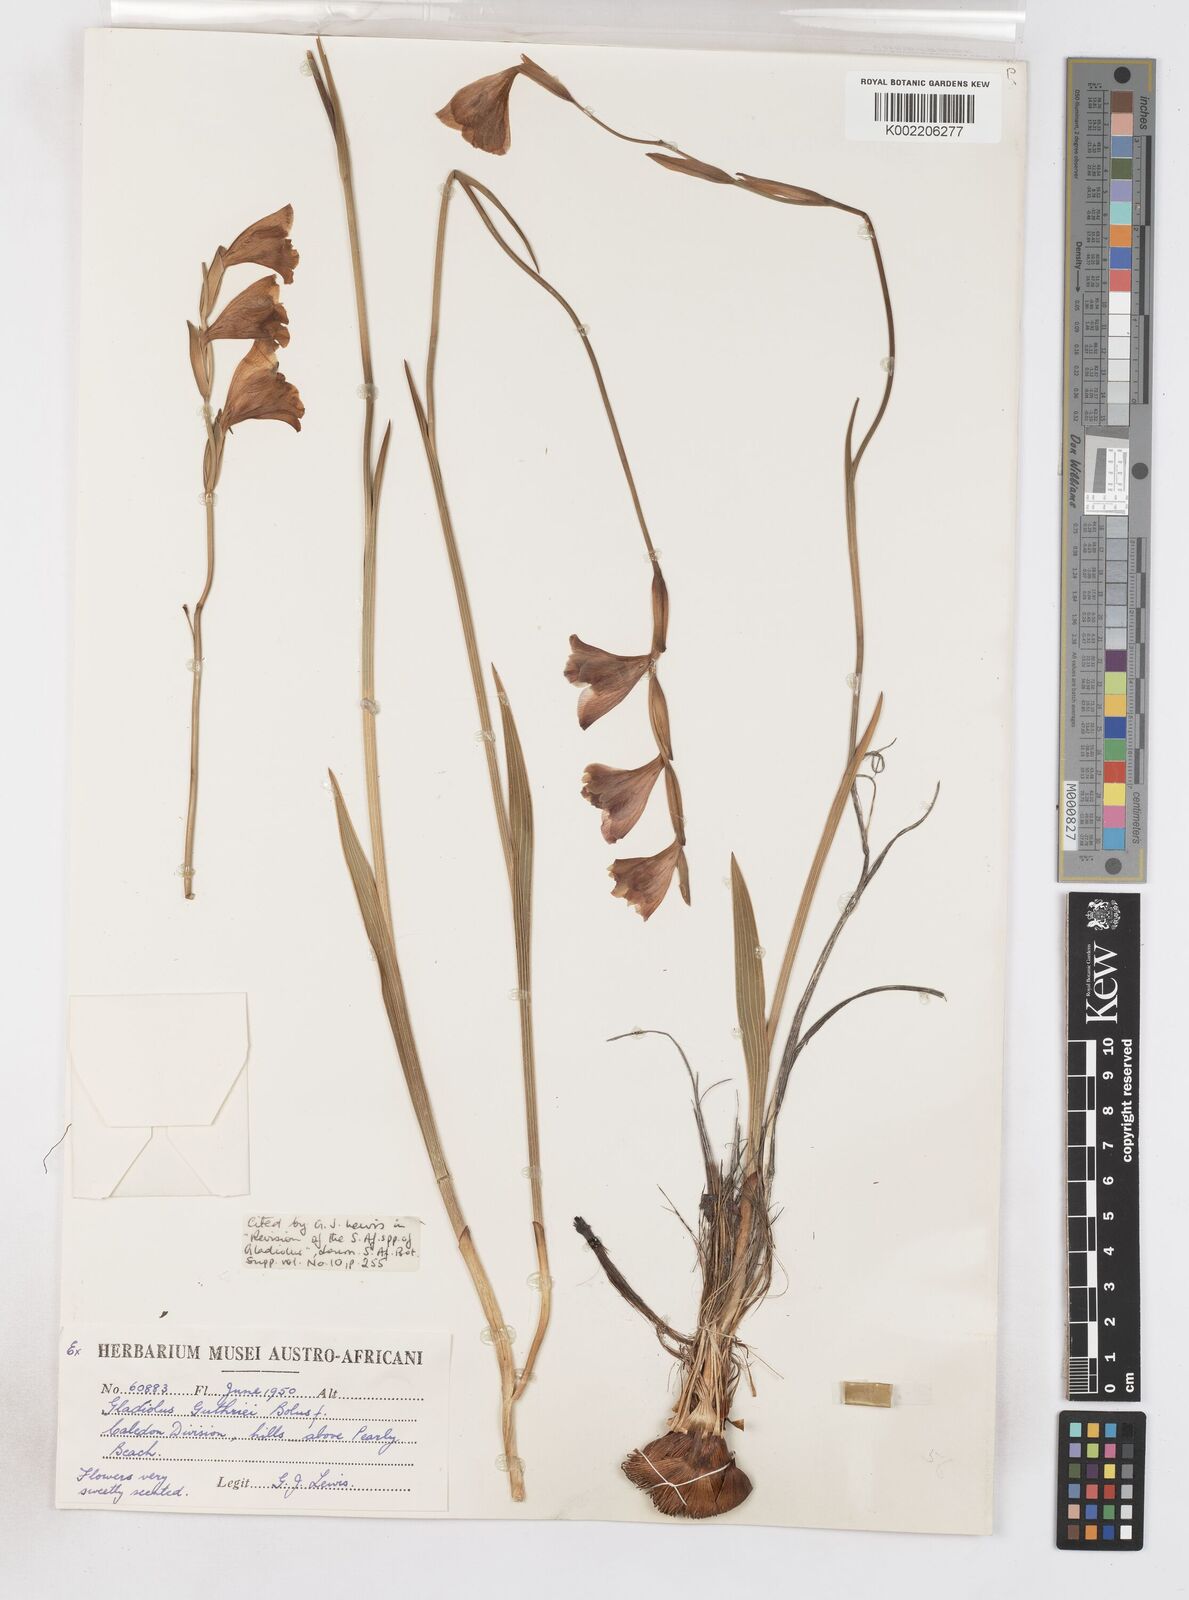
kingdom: Plantae
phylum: Tracheophyta
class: Liliopsida
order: Asparagales
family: Iridaceae
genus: Gladiolus
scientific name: Gladiolus guthriei
